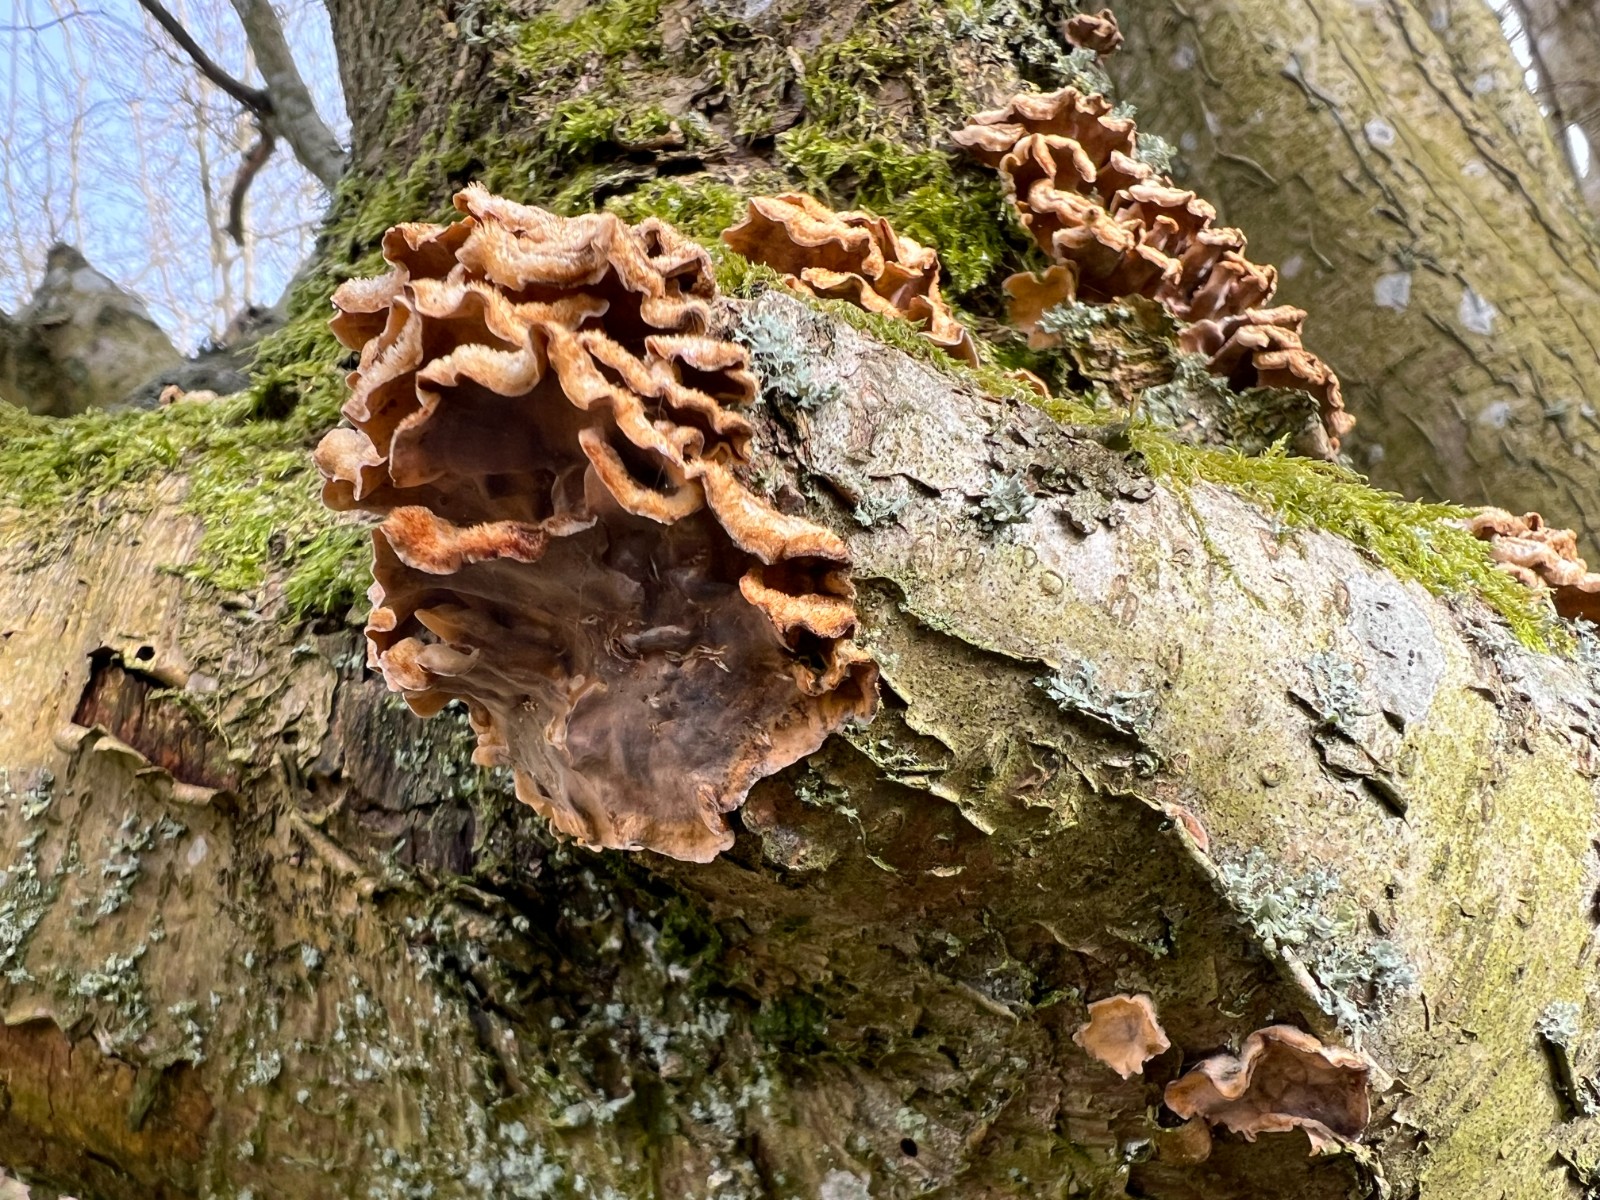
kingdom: Fungi
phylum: Basidiomycota
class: Agaricomycetes
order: Russulales
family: Stereaceae
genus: Stereum
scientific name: Stereum hirsutum
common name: håret lædersvamp
